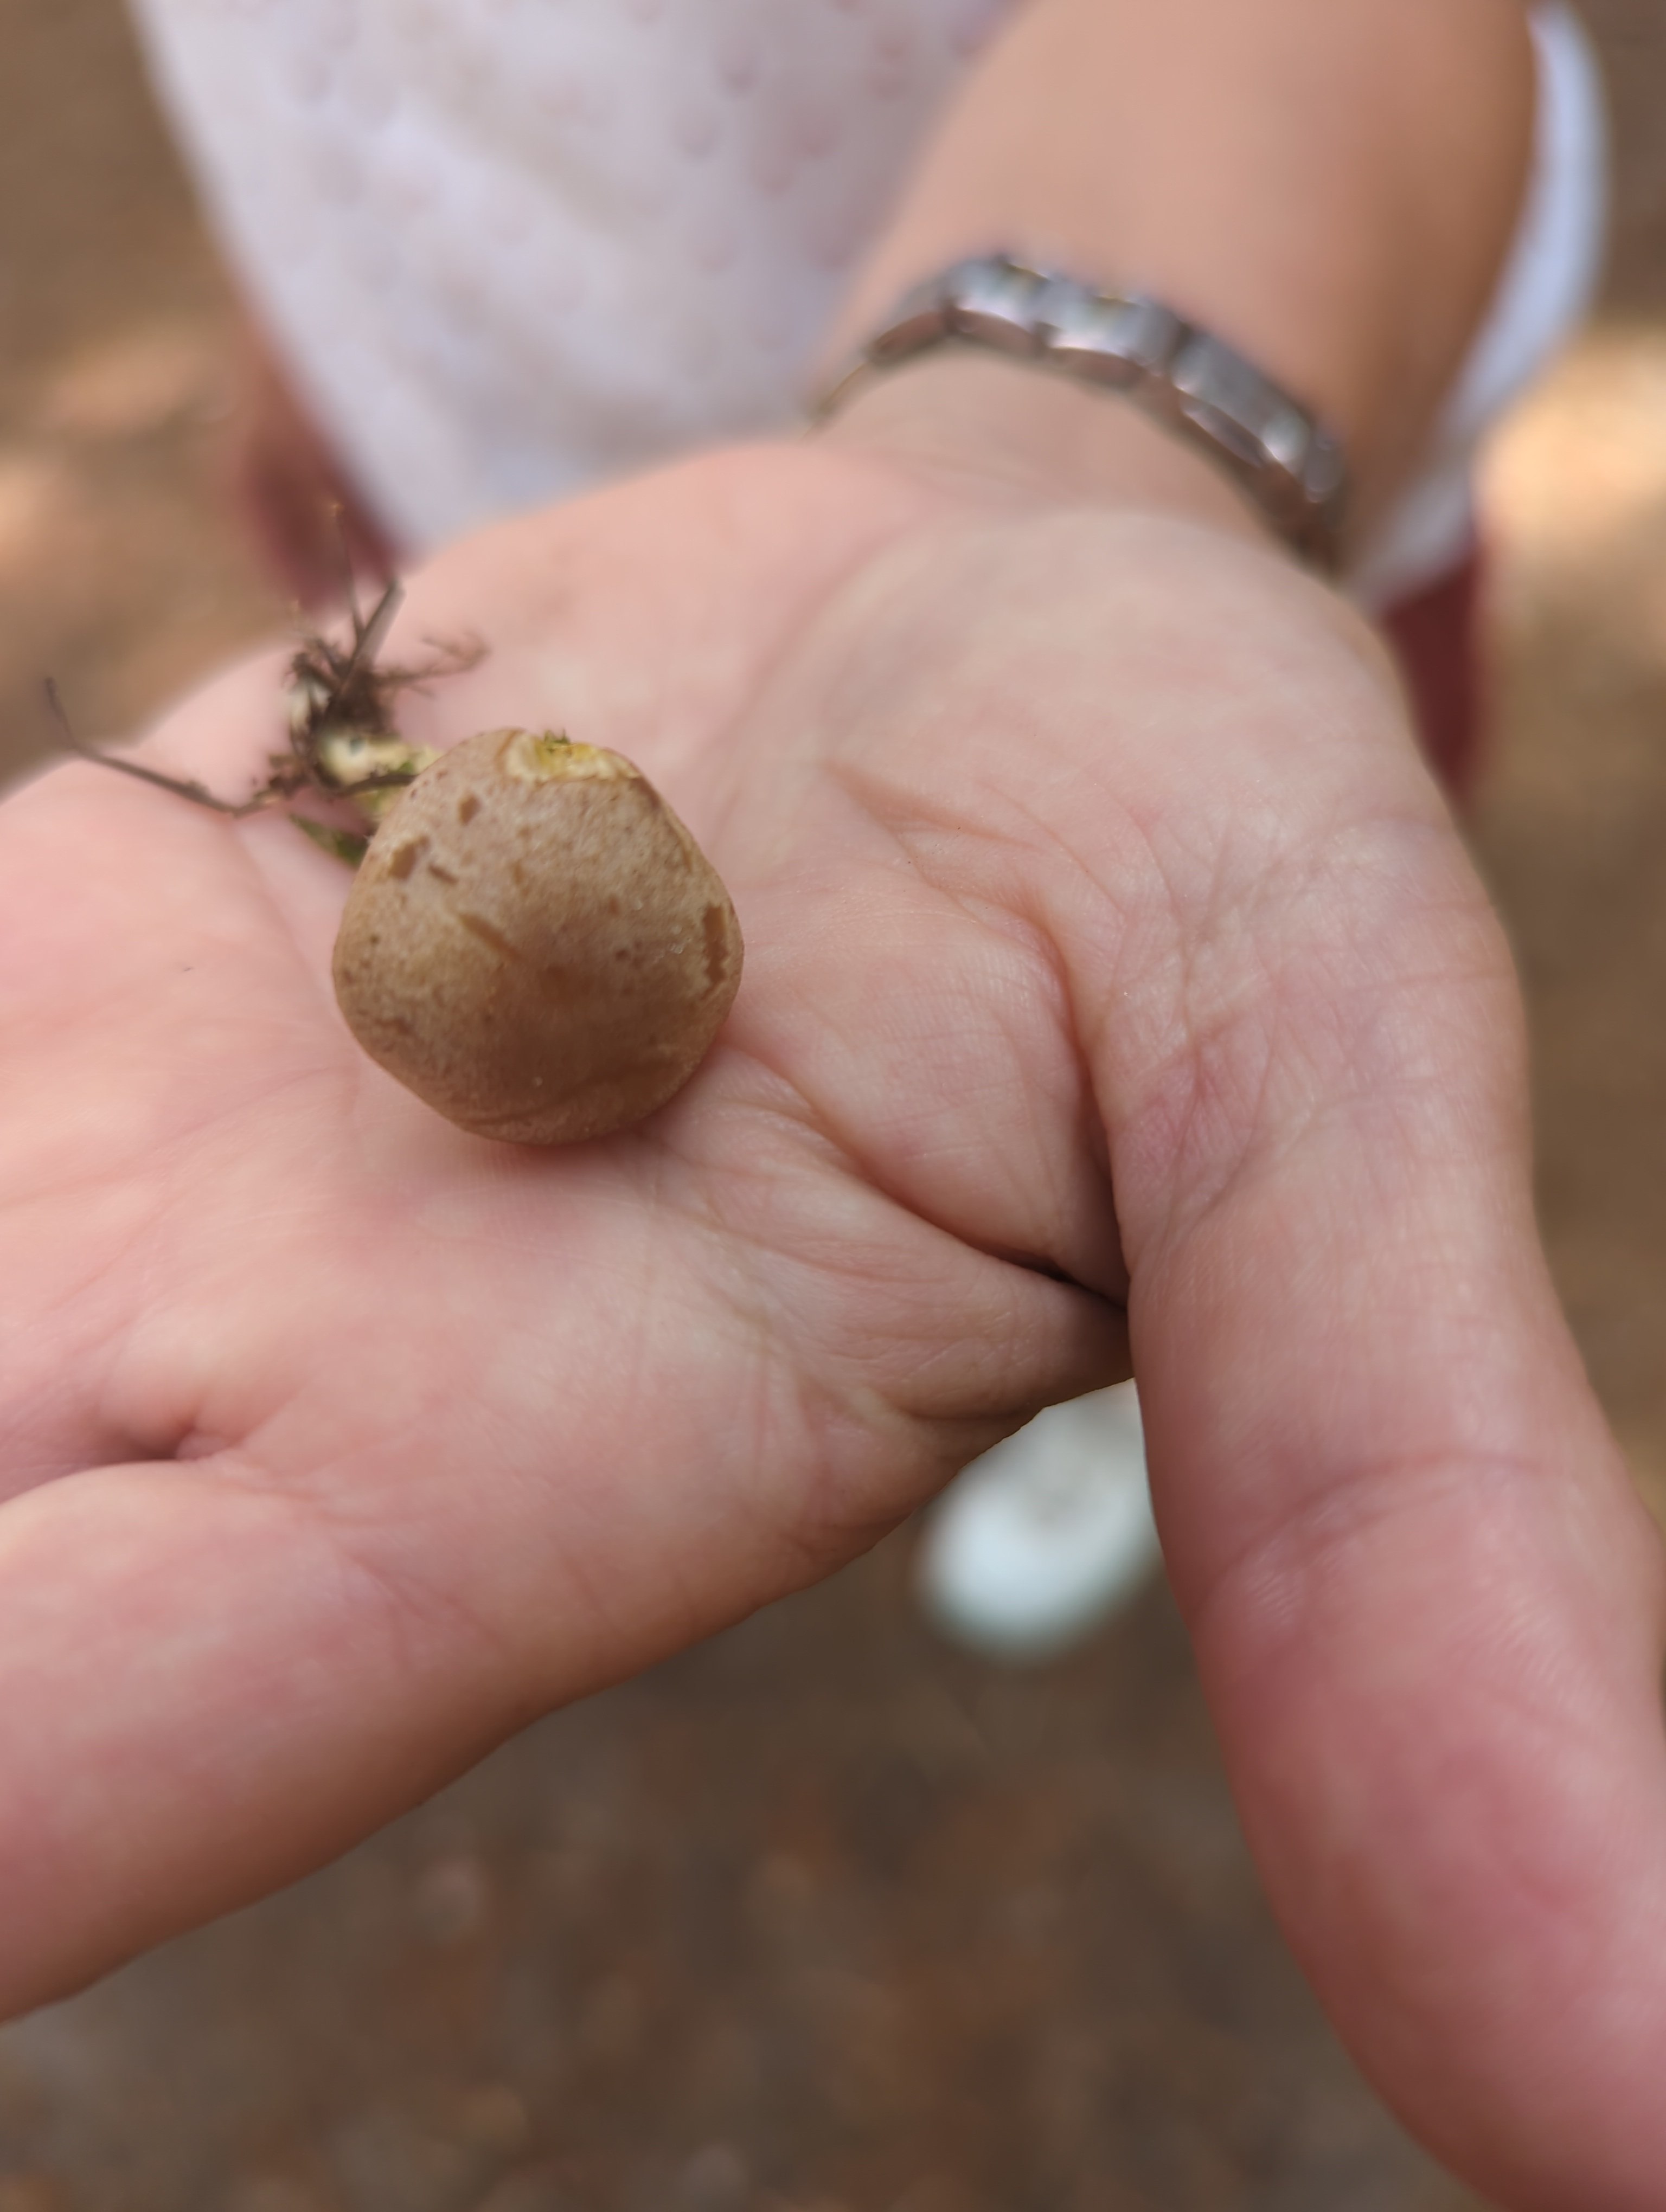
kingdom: Fungi
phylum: Basidiomycota
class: Agaricomycetes
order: Agaricales
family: Omphalotaceae
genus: Collybiopsis
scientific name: Collybiopsis peronata
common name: bestøvlet fladhat
